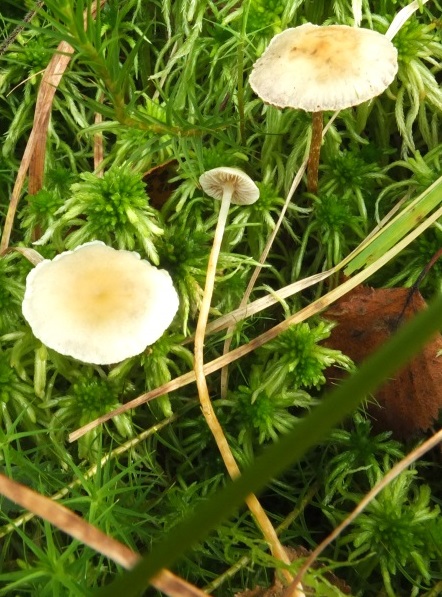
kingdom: Fungi
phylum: Basidiomycota
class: Agaricomycetes
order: Agaricales
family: Strophariaceae
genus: Hypholoma
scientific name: Hypholoma elongatum
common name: slank svovlhat
